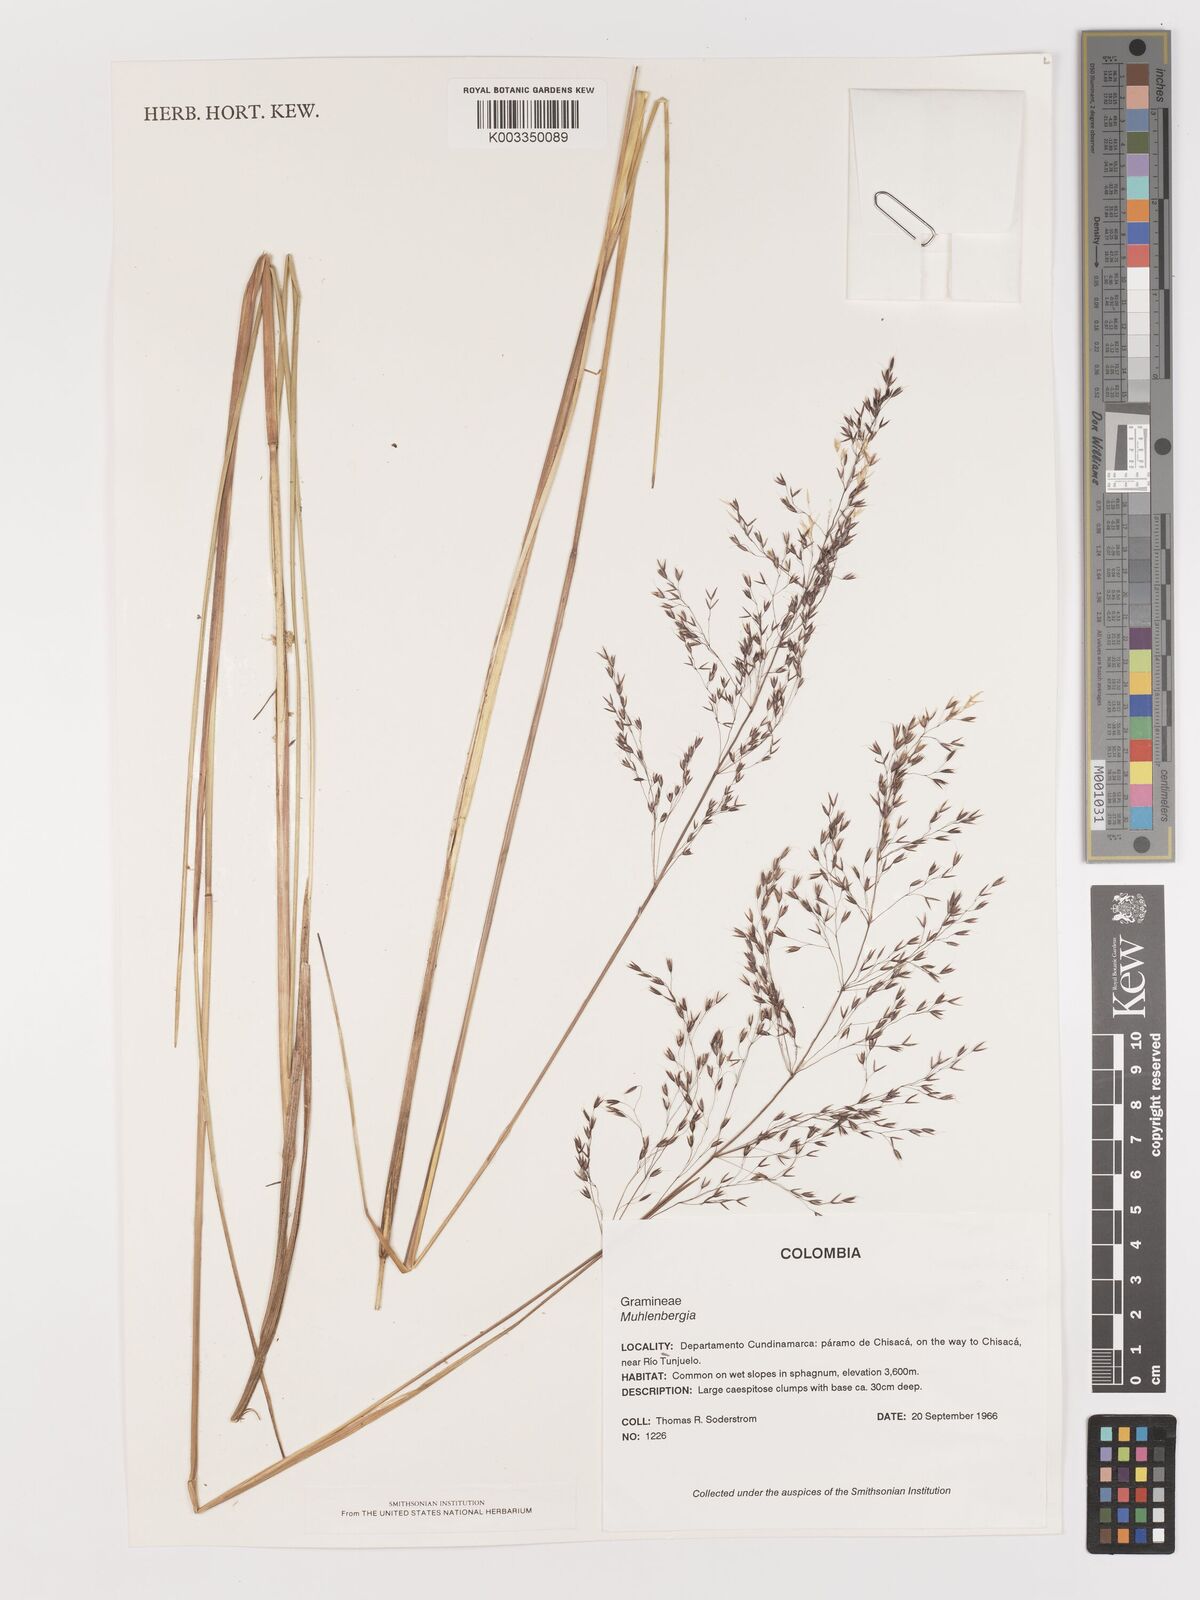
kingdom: Plantae
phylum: Tracheophyta
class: Liliopsida
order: Poales
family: Poaceae
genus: Agrostis
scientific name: Agrostis
